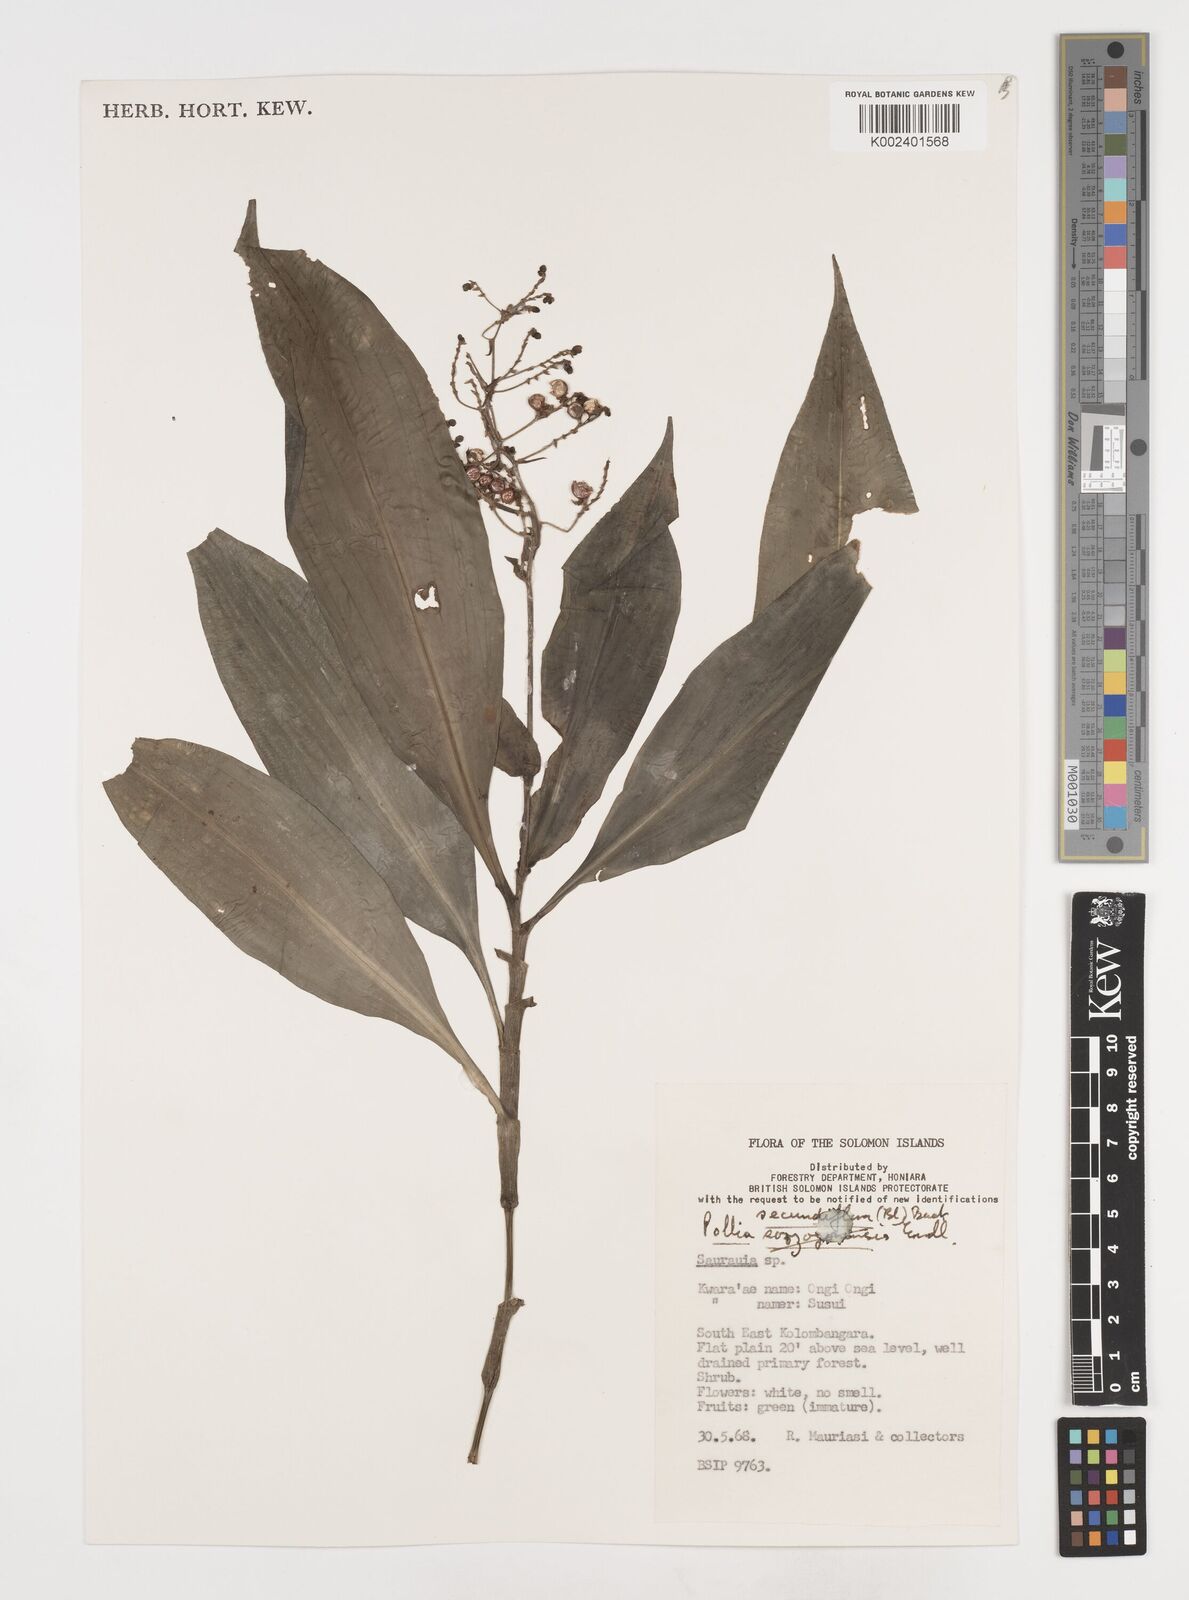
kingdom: Plantae
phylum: Tracheophyta
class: Liliopsida
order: Commelinales
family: Commelinaceae
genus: Pollia
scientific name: Pollia secundiflora
